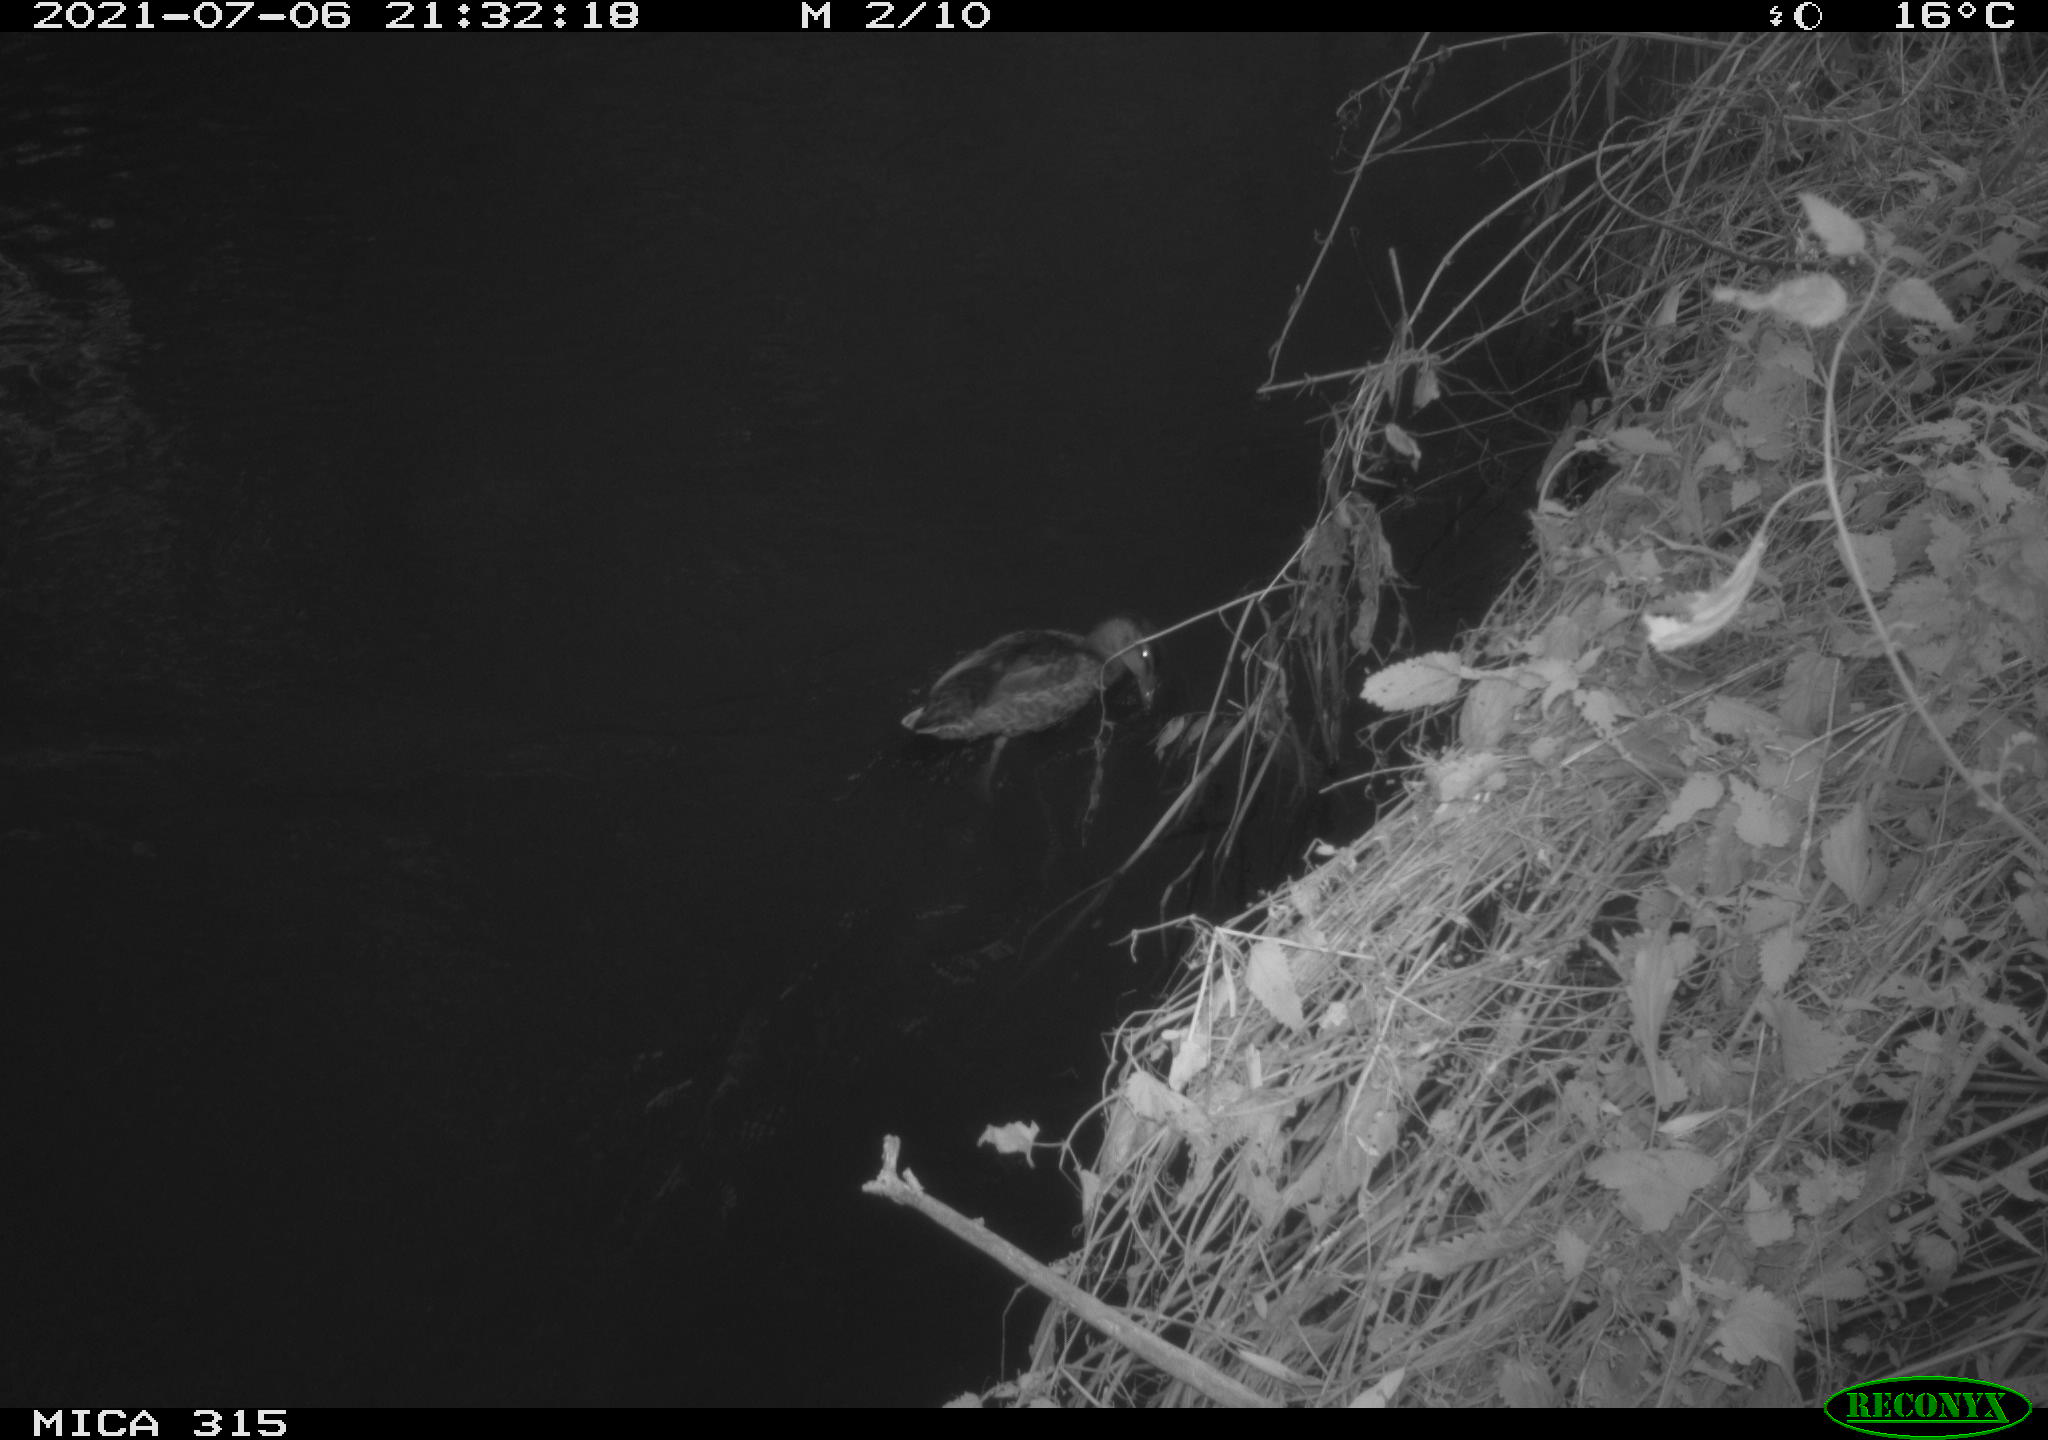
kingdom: Animalia
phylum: Chordata
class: Aves
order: Anseriformes
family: Anatidae
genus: Anas
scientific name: Anas platyrhynchos
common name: Mallard
